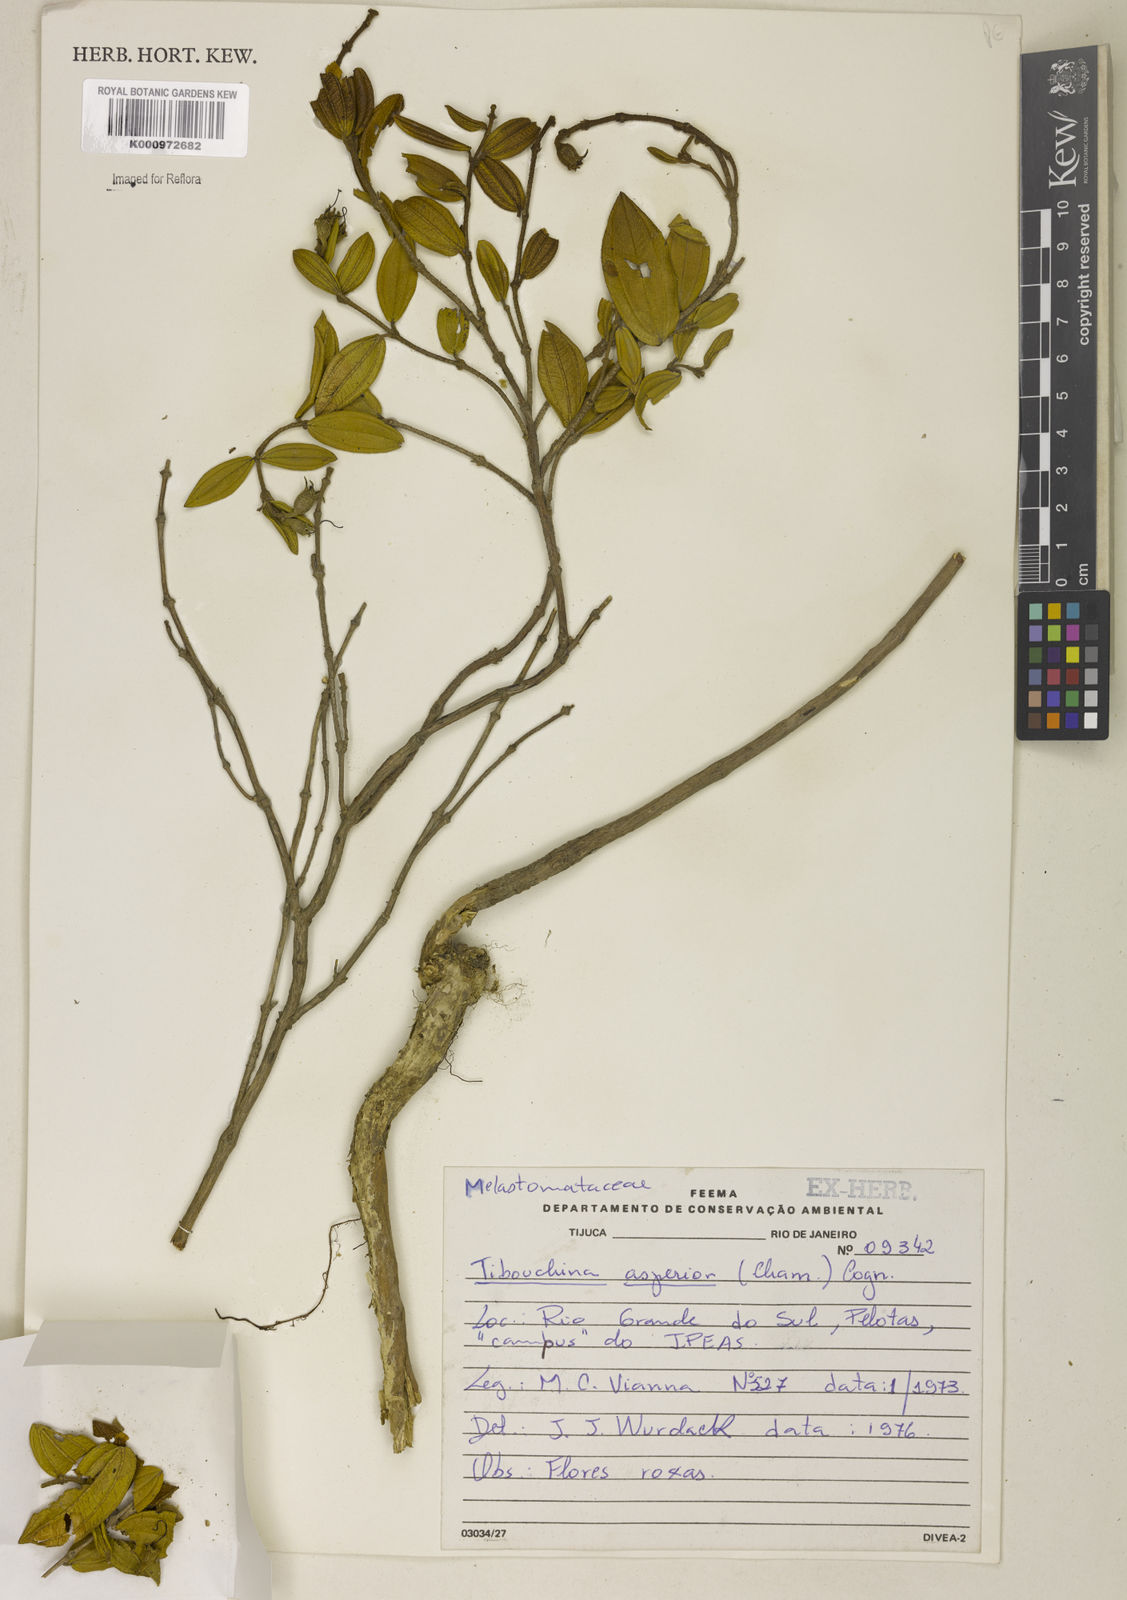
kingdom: Plantae
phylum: Tracheophyta
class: Magnoliopsida
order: Myrtales
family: Melastomataceae
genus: Pleroma
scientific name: Pleroma asperius
